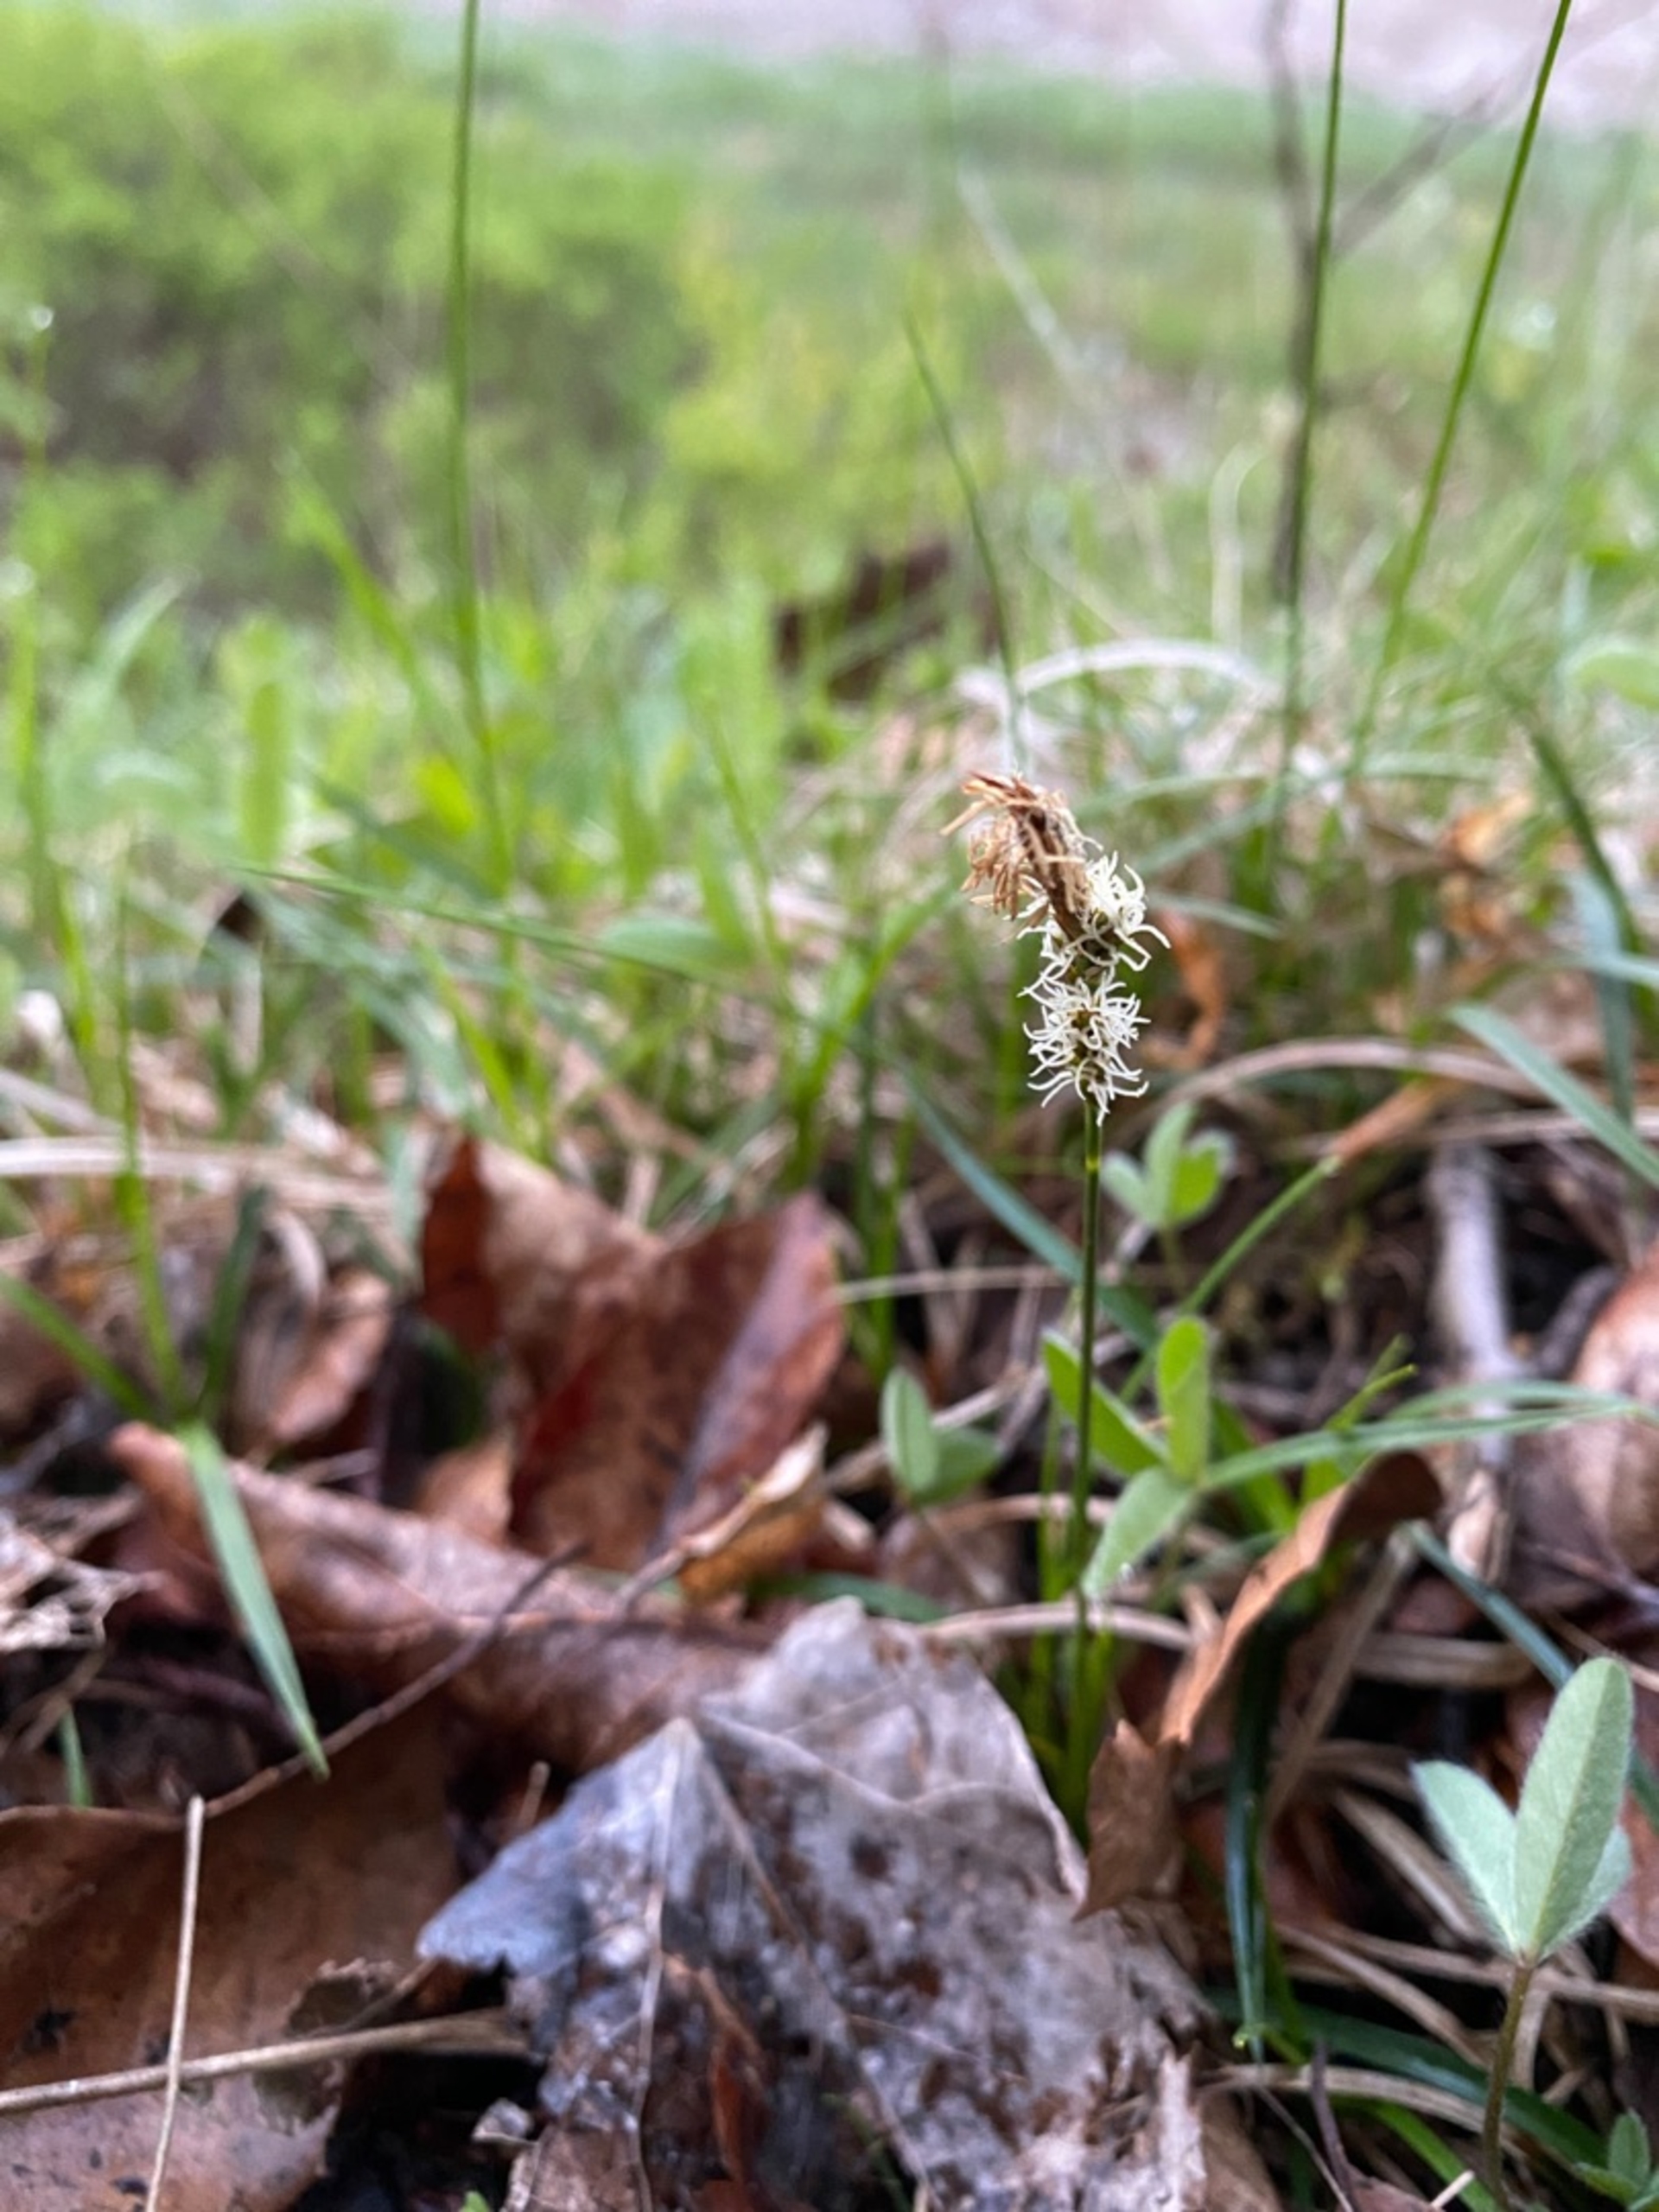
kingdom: Plantae
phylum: Tracheophyta
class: Liliopsida
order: Poales
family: Cyperaceae
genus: Carex
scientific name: Carex caryophyllea
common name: Vår-star
